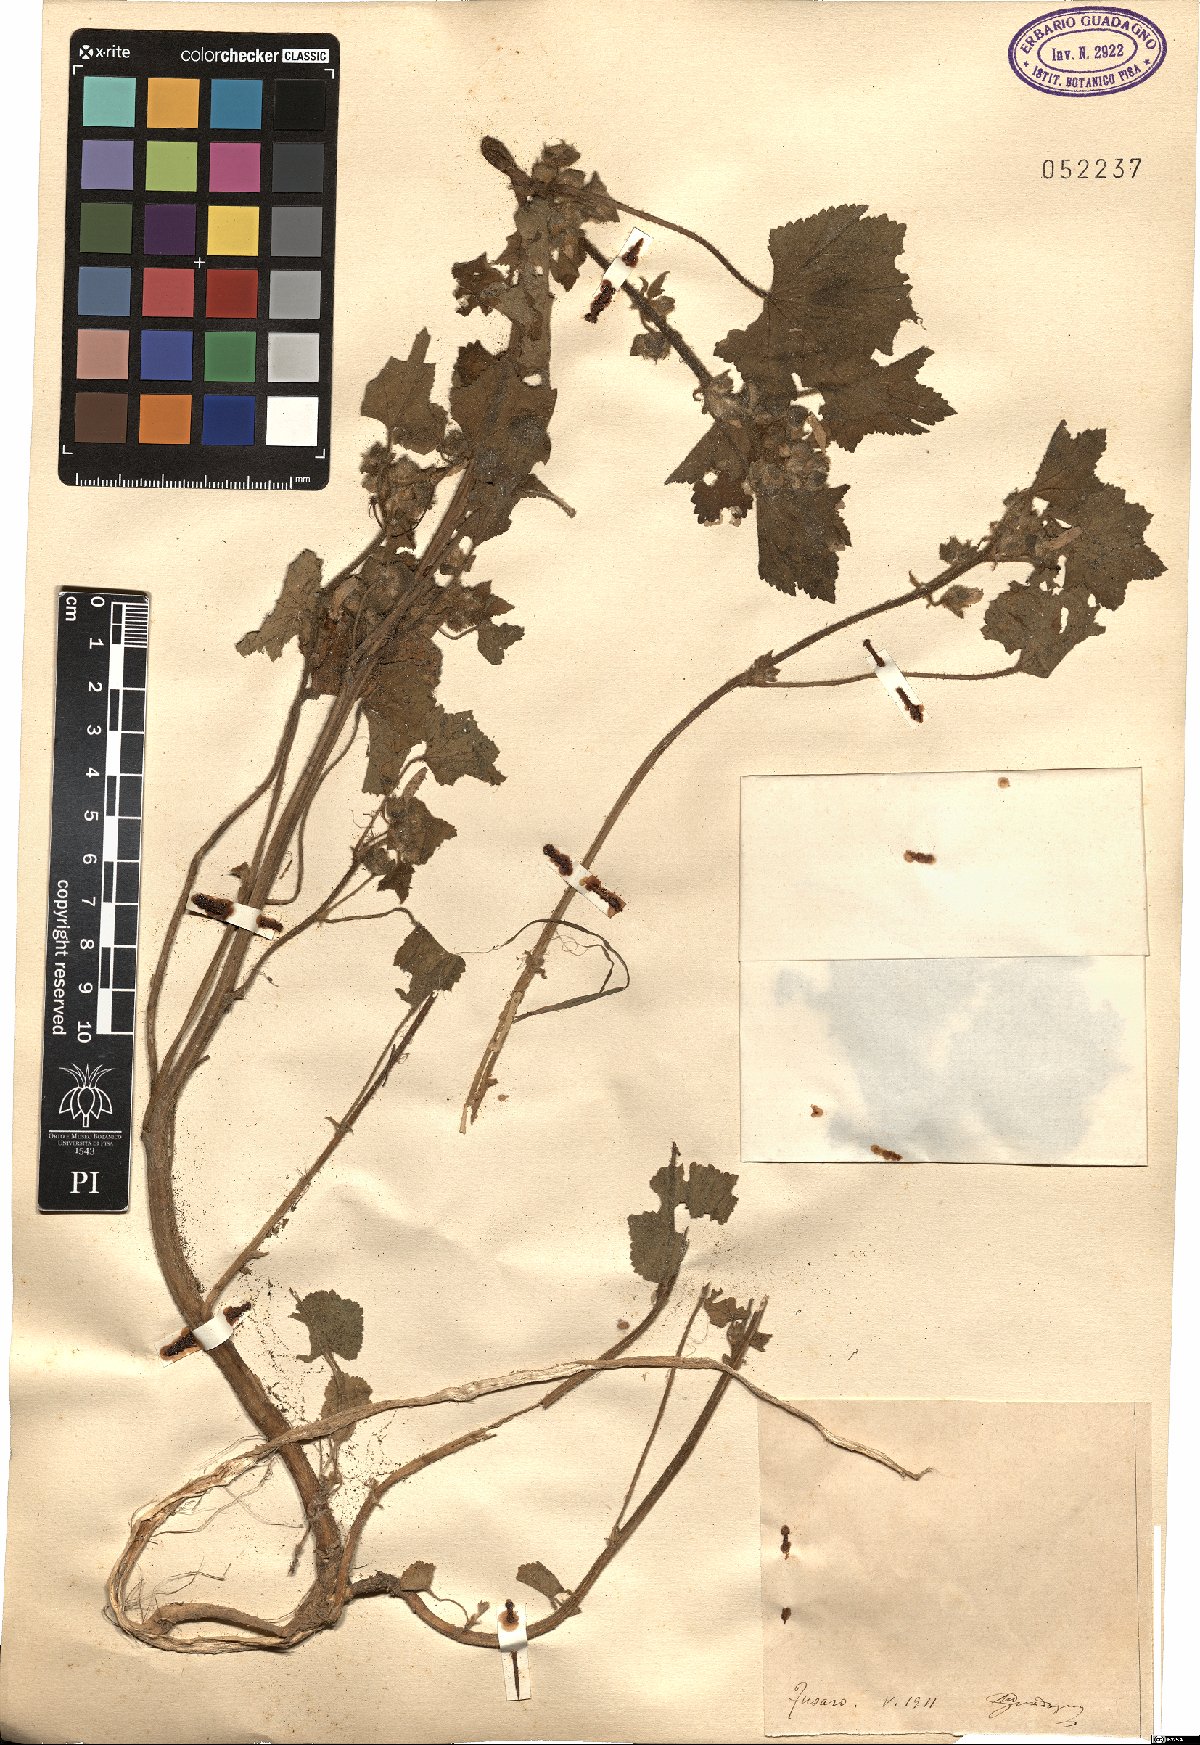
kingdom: Plantae
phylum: Tracheophyta
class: Magnoliopsida
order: Malvales
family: Malvaceae
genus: Malva
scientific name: Malva
